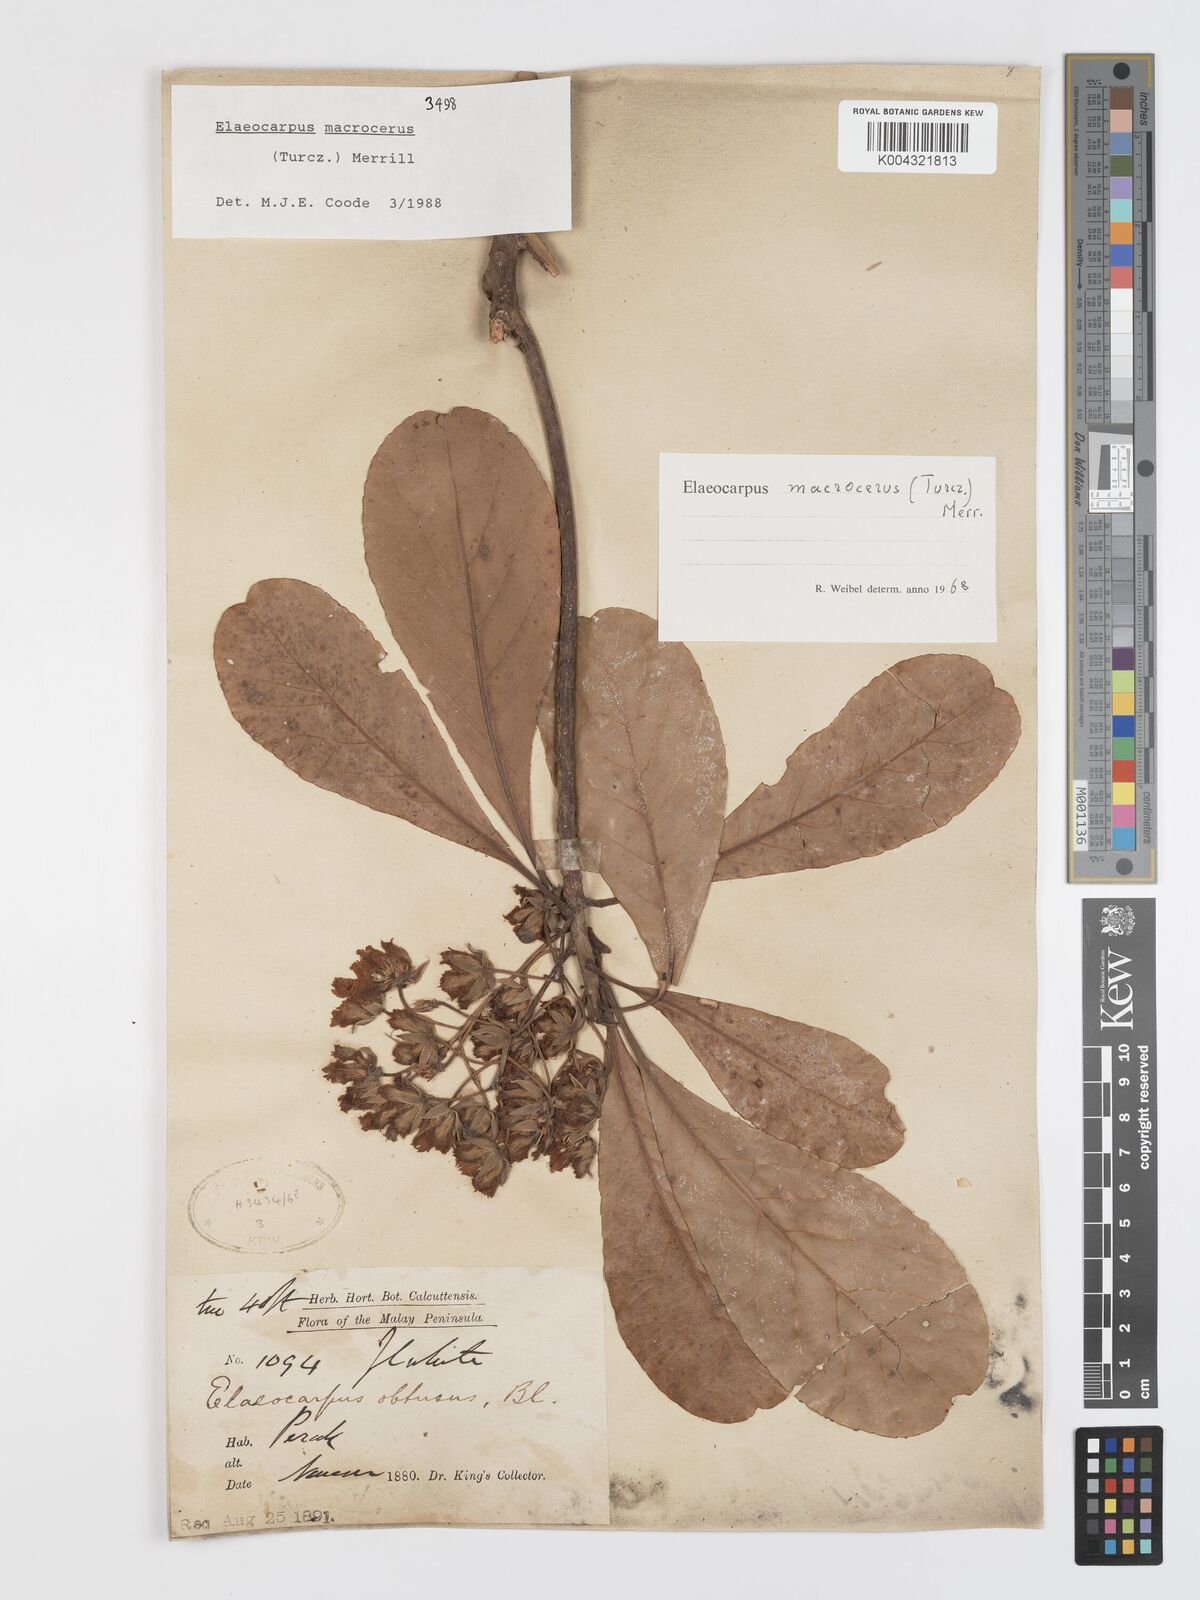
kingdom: Plantae
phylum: Tracheophyta
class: Magnoliopsida
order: Oxalidales
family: Elaeocarpaceae
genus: Elaeocarpus
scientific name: Elaeocarpus
